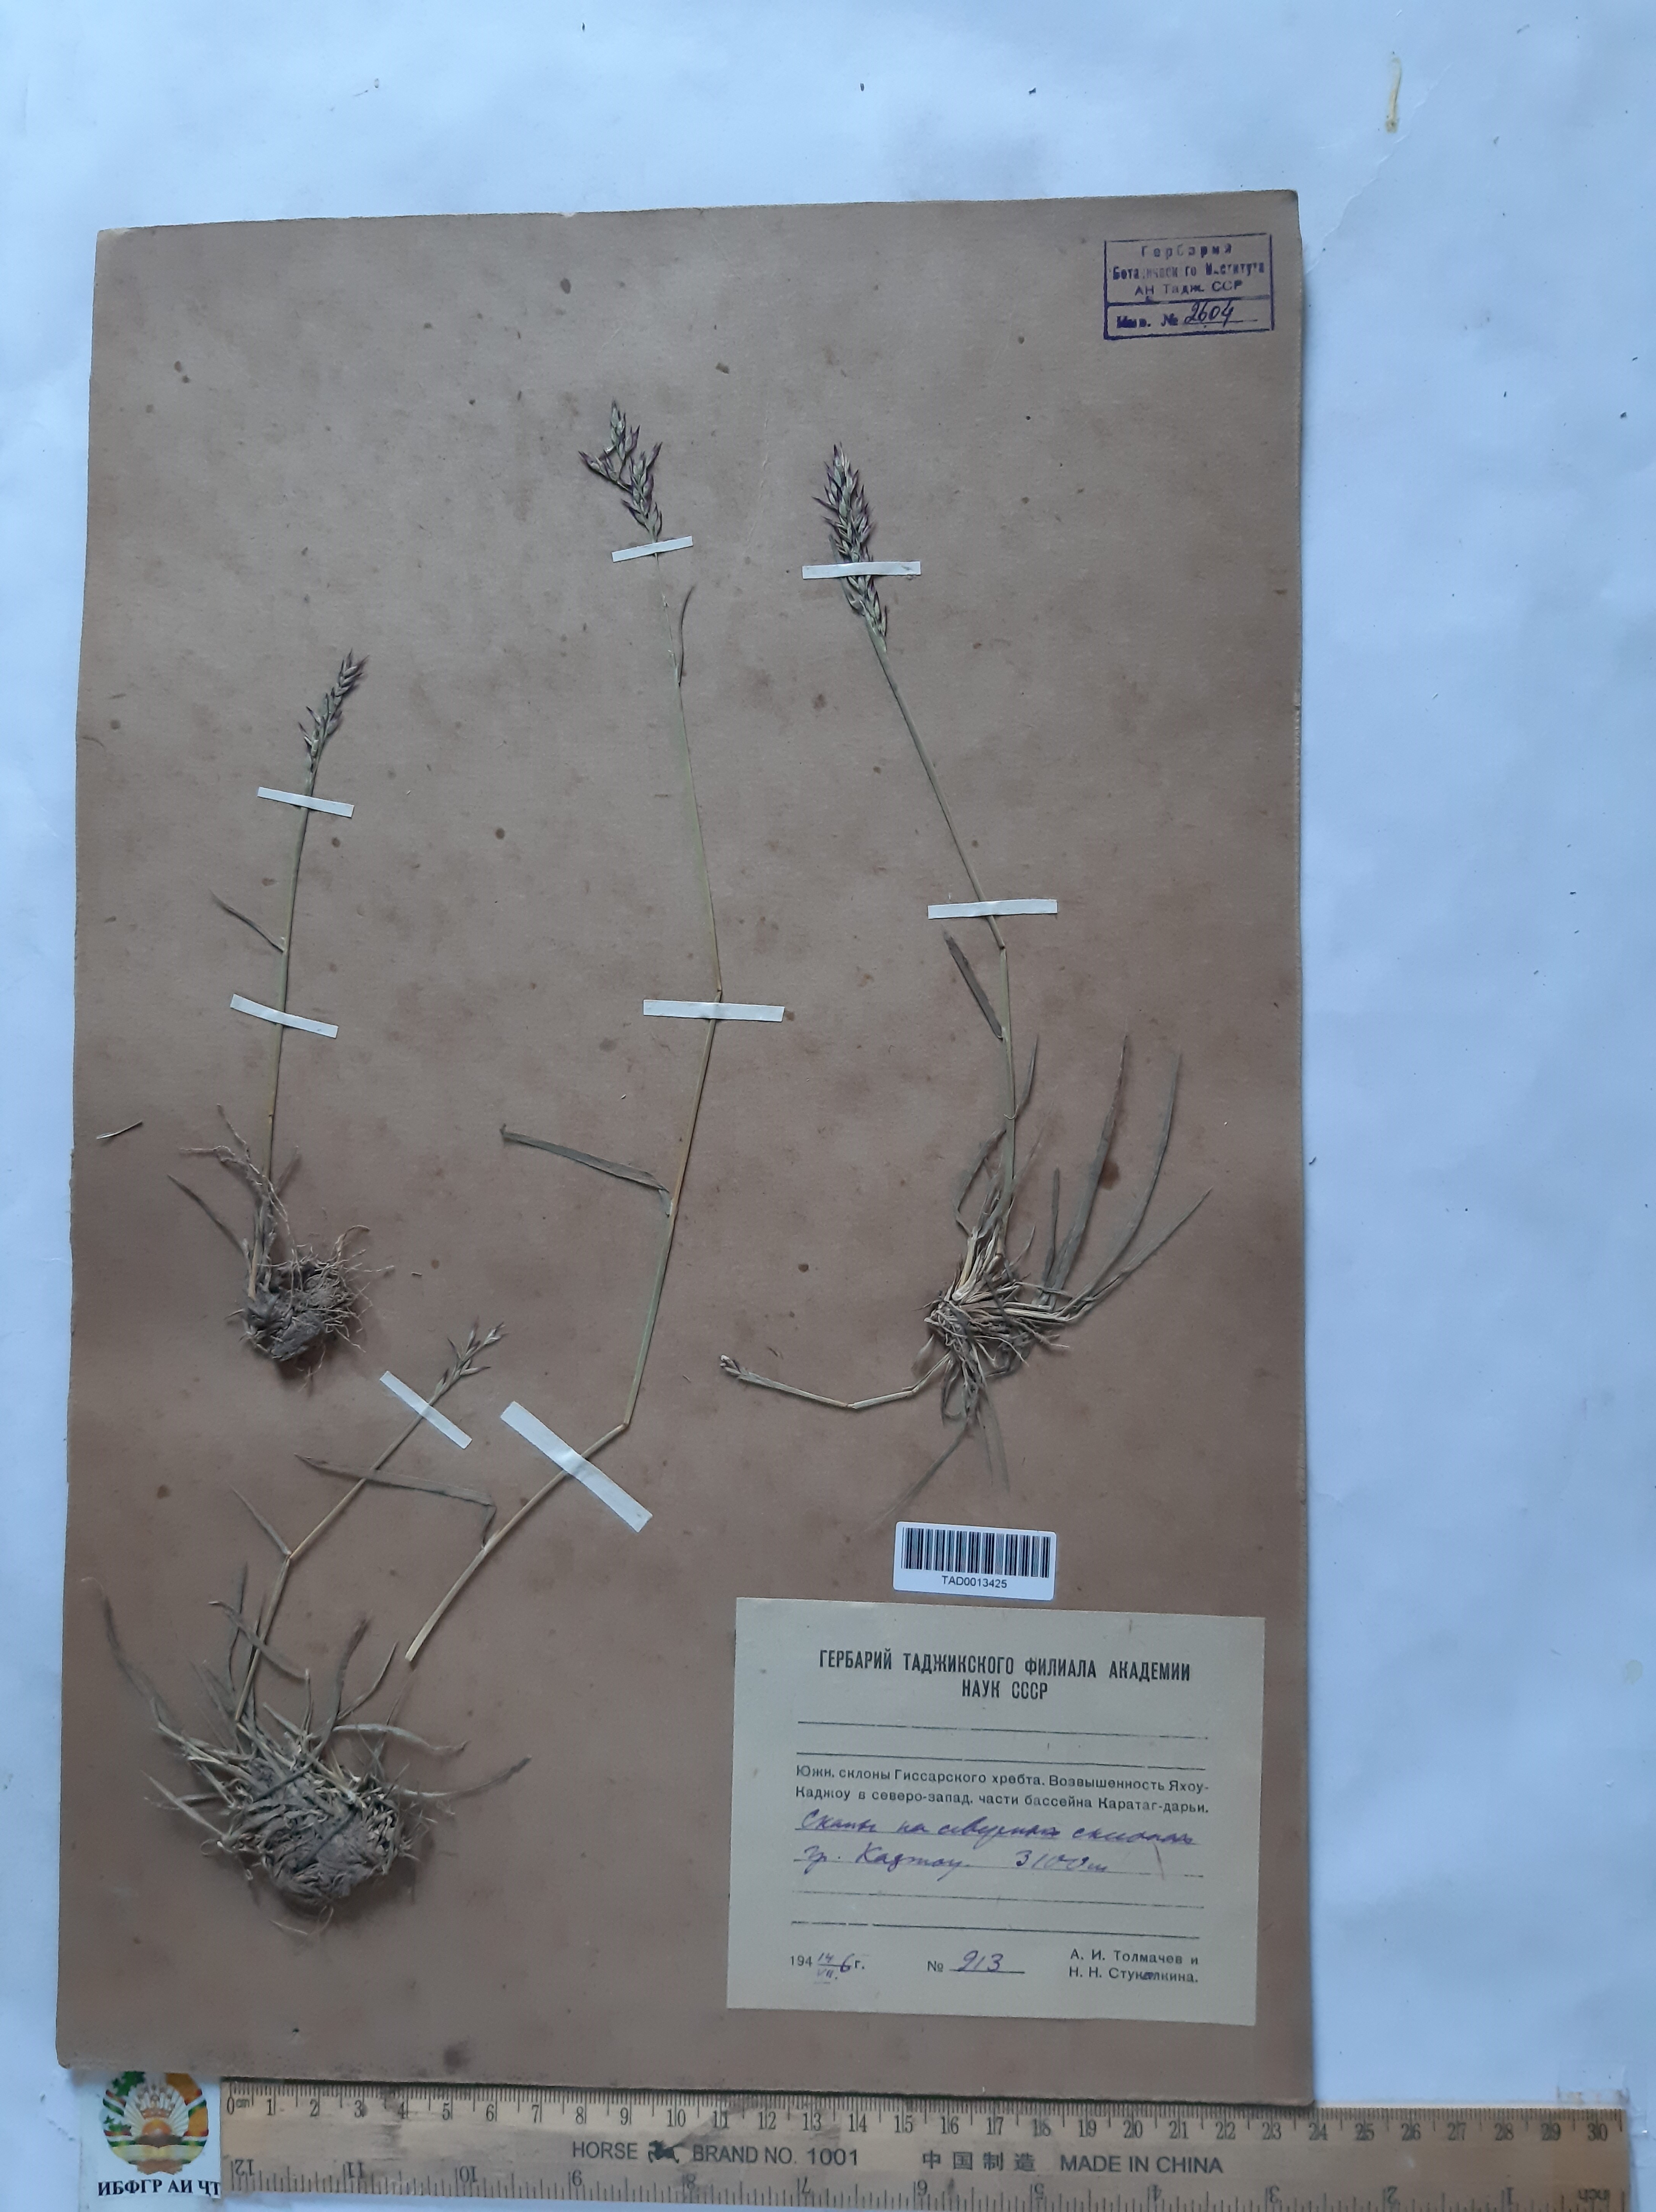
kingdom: Plantae
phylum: Tracheophyta
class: Liliopsida
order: Poales
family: Poaceae
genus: Piptatherum
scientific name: Piptatherum alpestre
